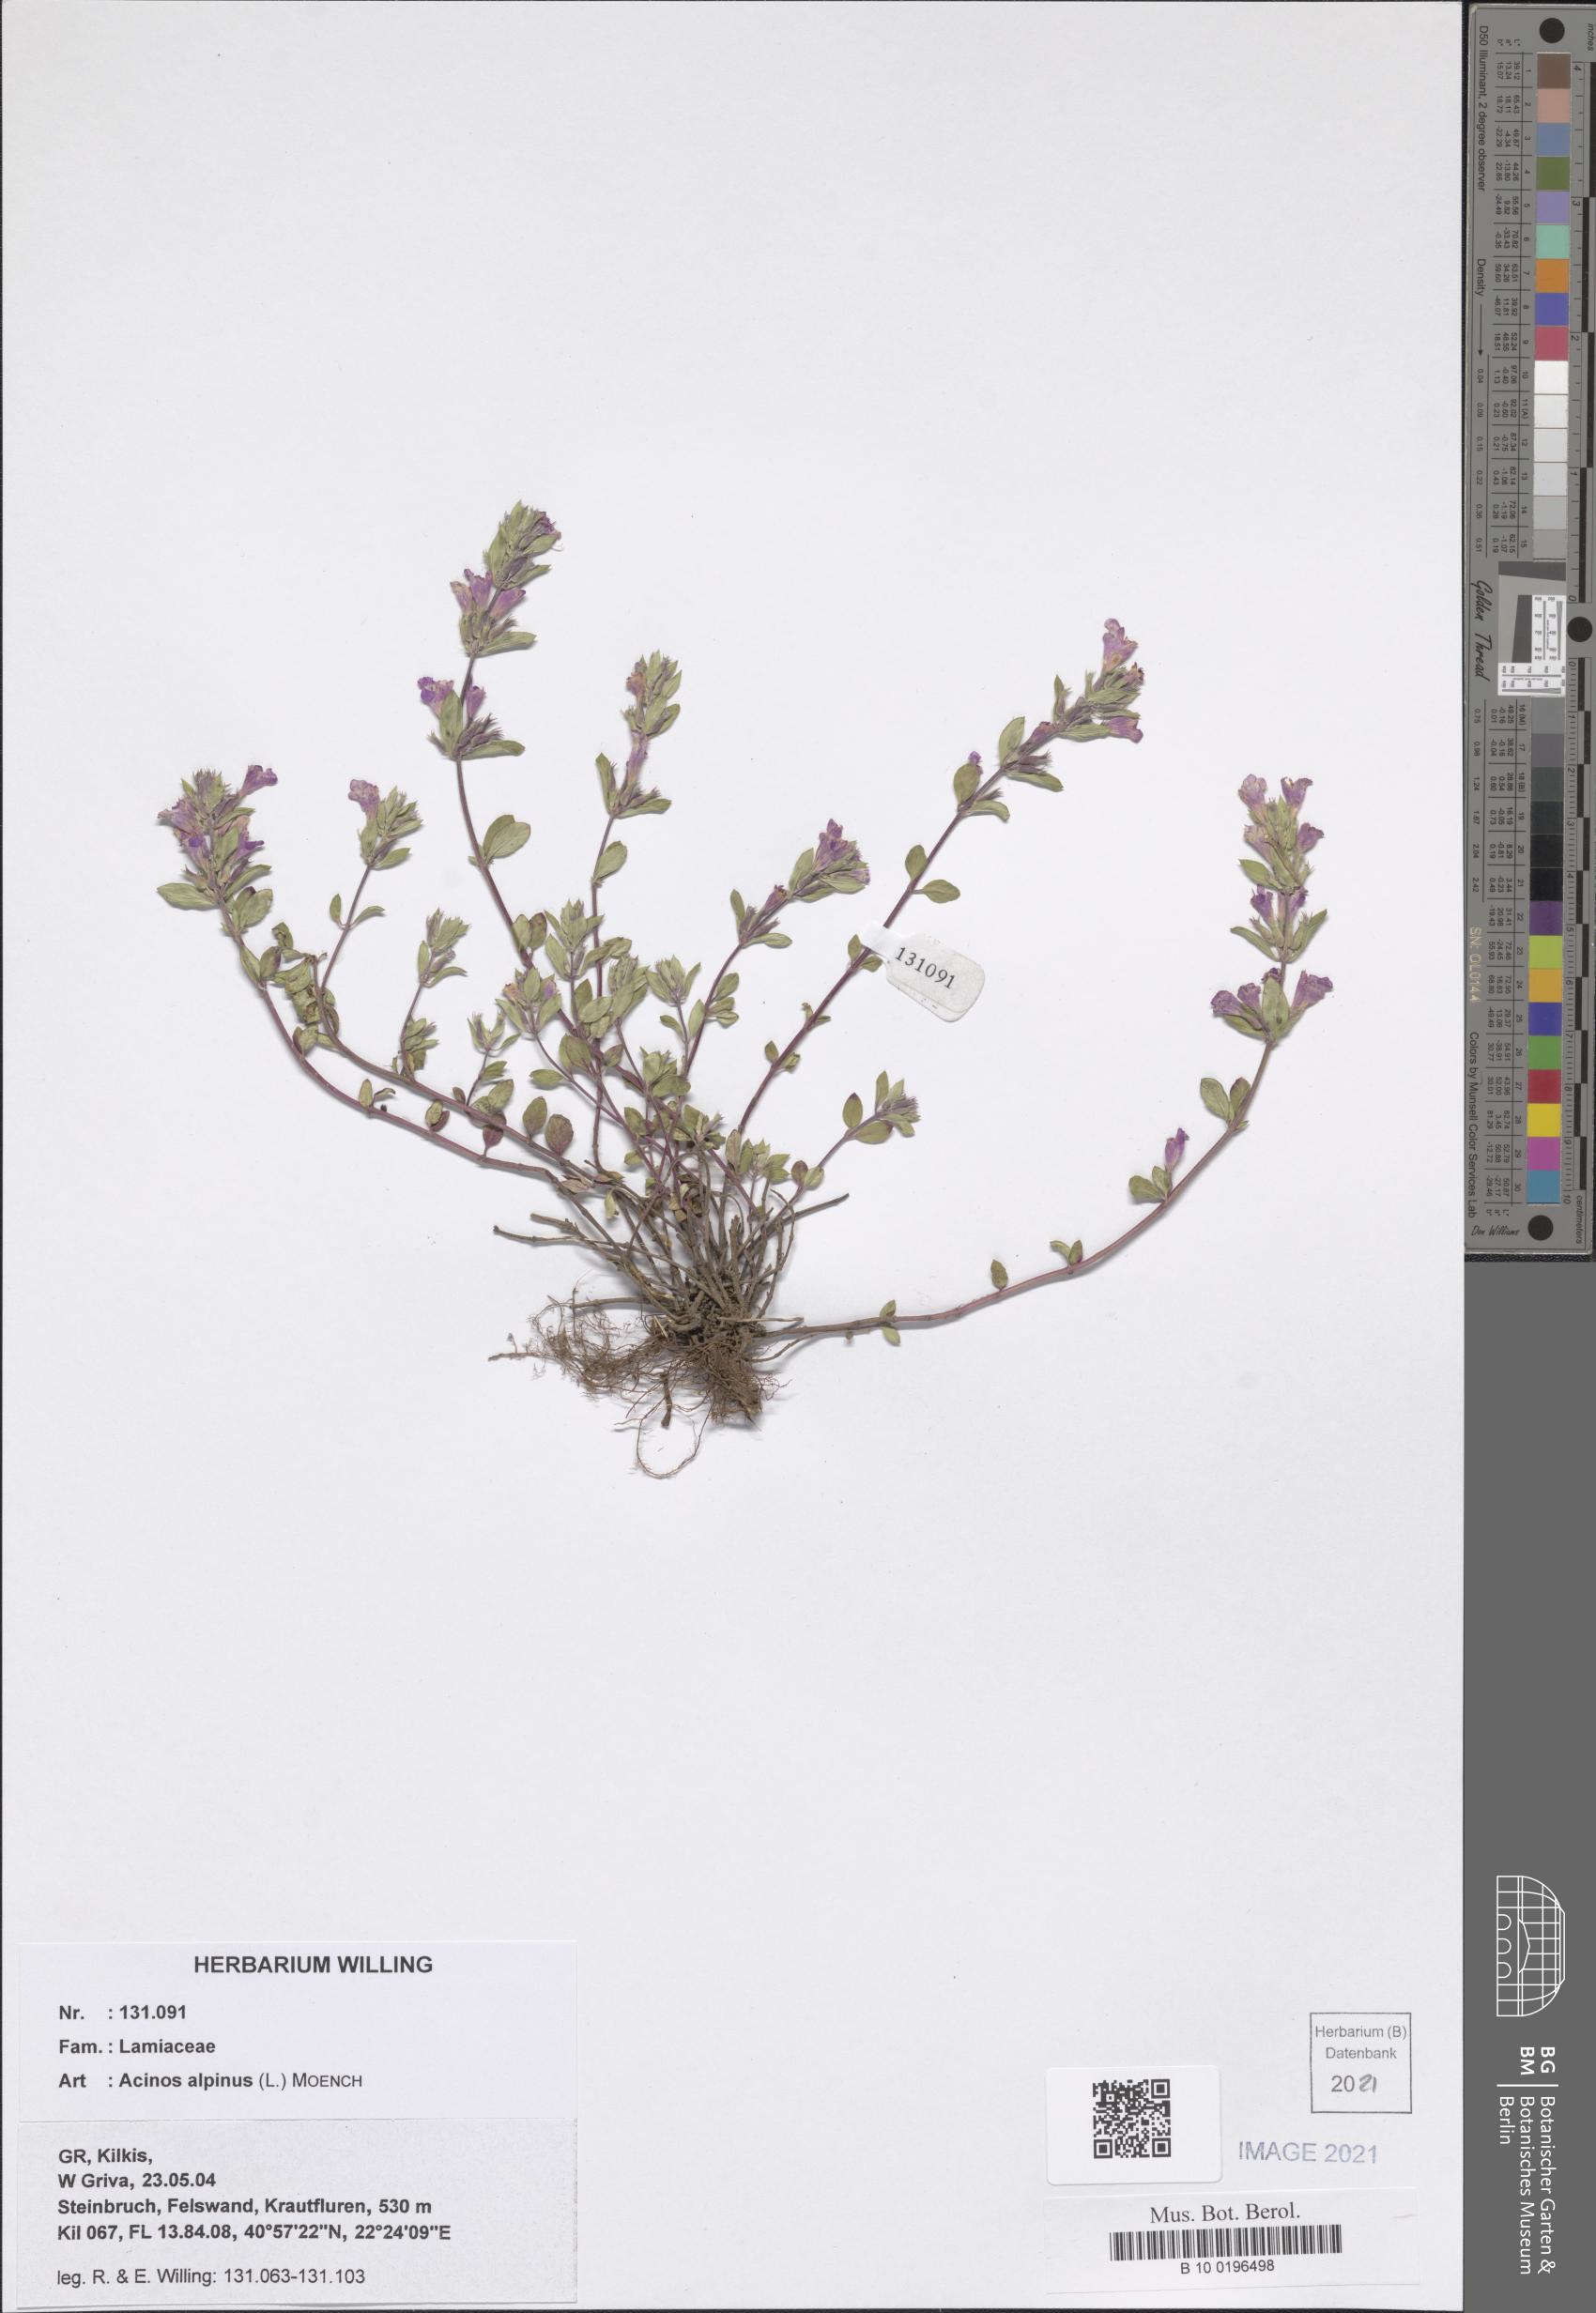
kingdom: Plantae
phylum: Tracheophyta
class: Magnoliopsida
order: Lamiales
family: Lamiaceae
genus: Clinopodium
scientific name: Clinopodium alpinum
